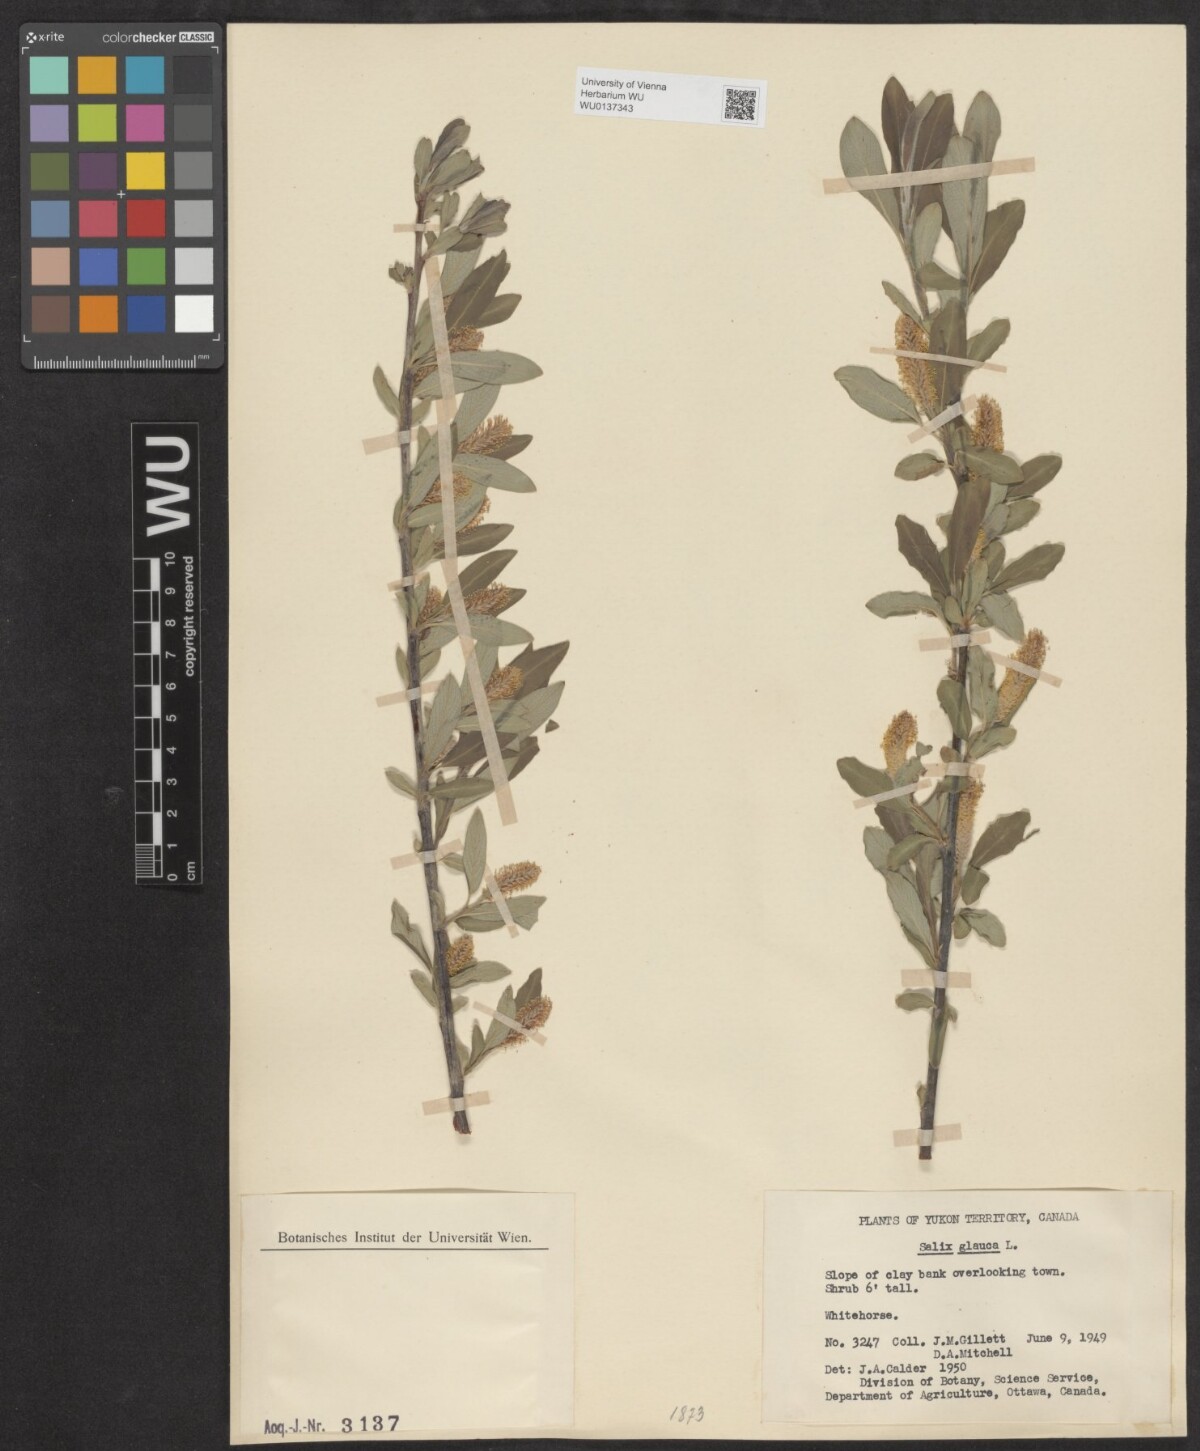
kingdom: Plantae
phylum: Tracheophyta
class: Magnoliopsida
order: Malpighiales
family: Salicaceae
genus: Salix
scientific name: Salix glauca
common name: Glaucous willow
